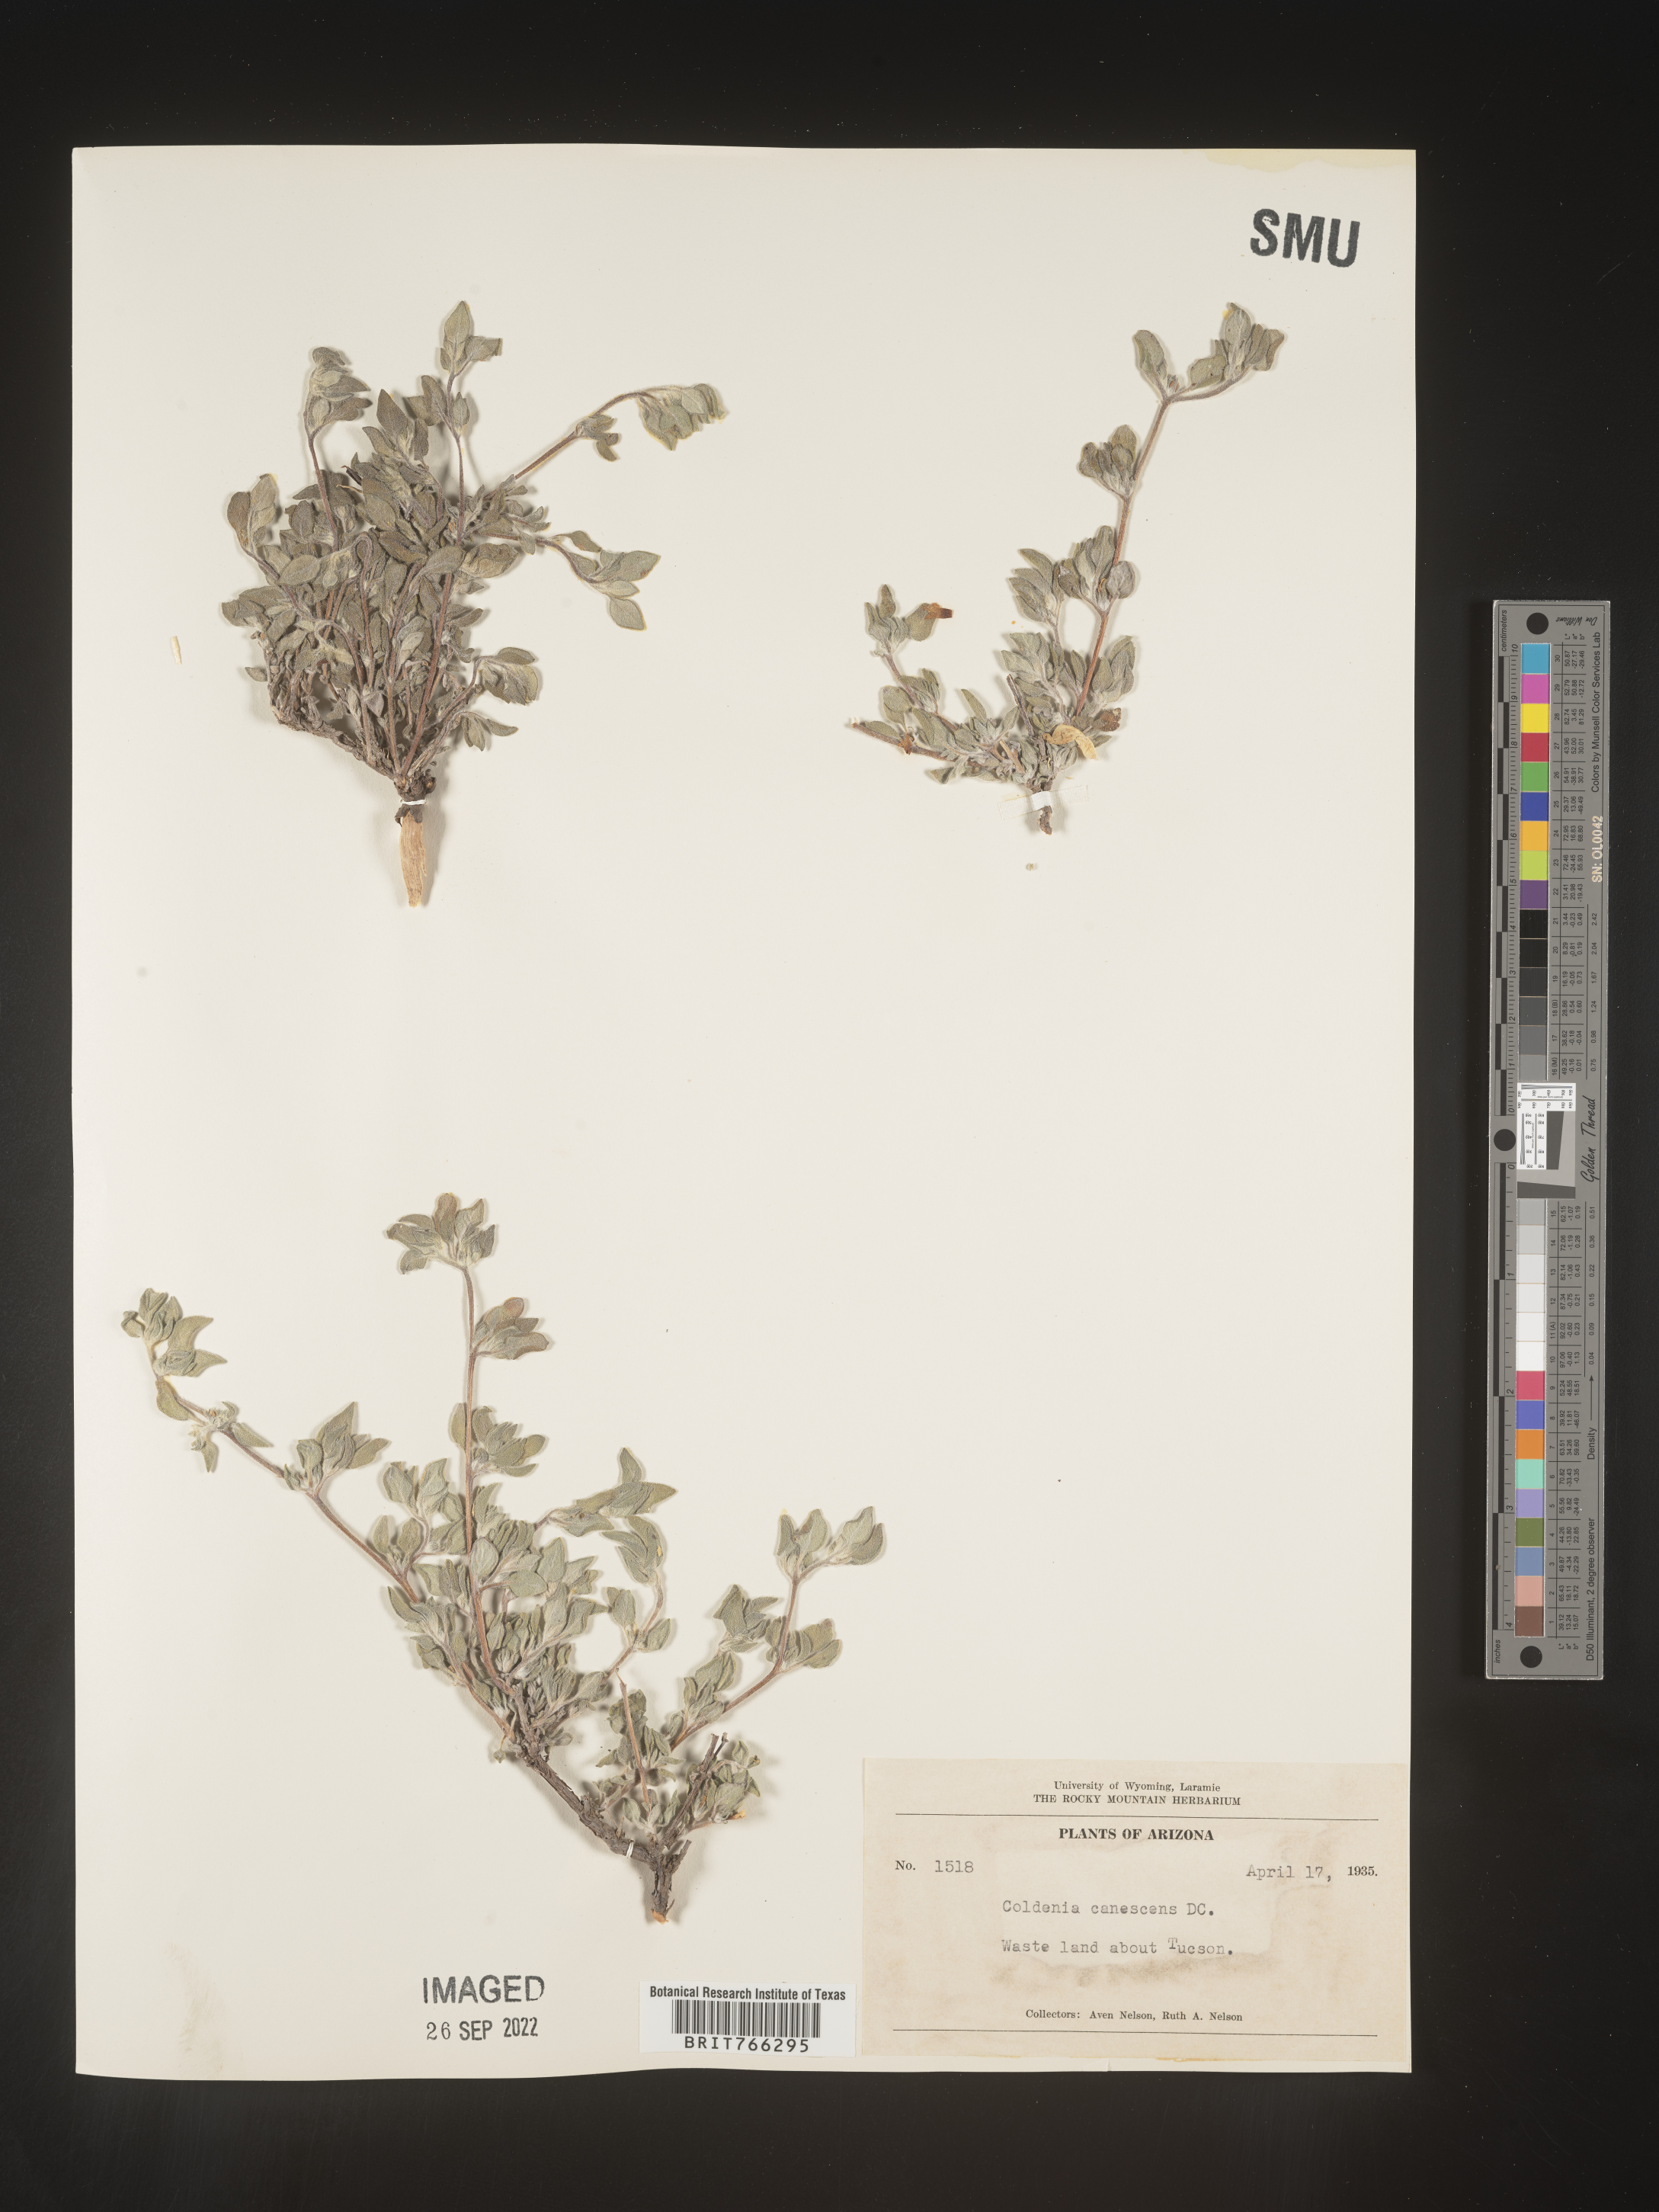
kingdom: Plantae
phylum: Tracheophyta
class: Magnoliopsida
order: Boraginales
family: Coldeniaceae
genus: Coldenia
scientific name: Coldenia
